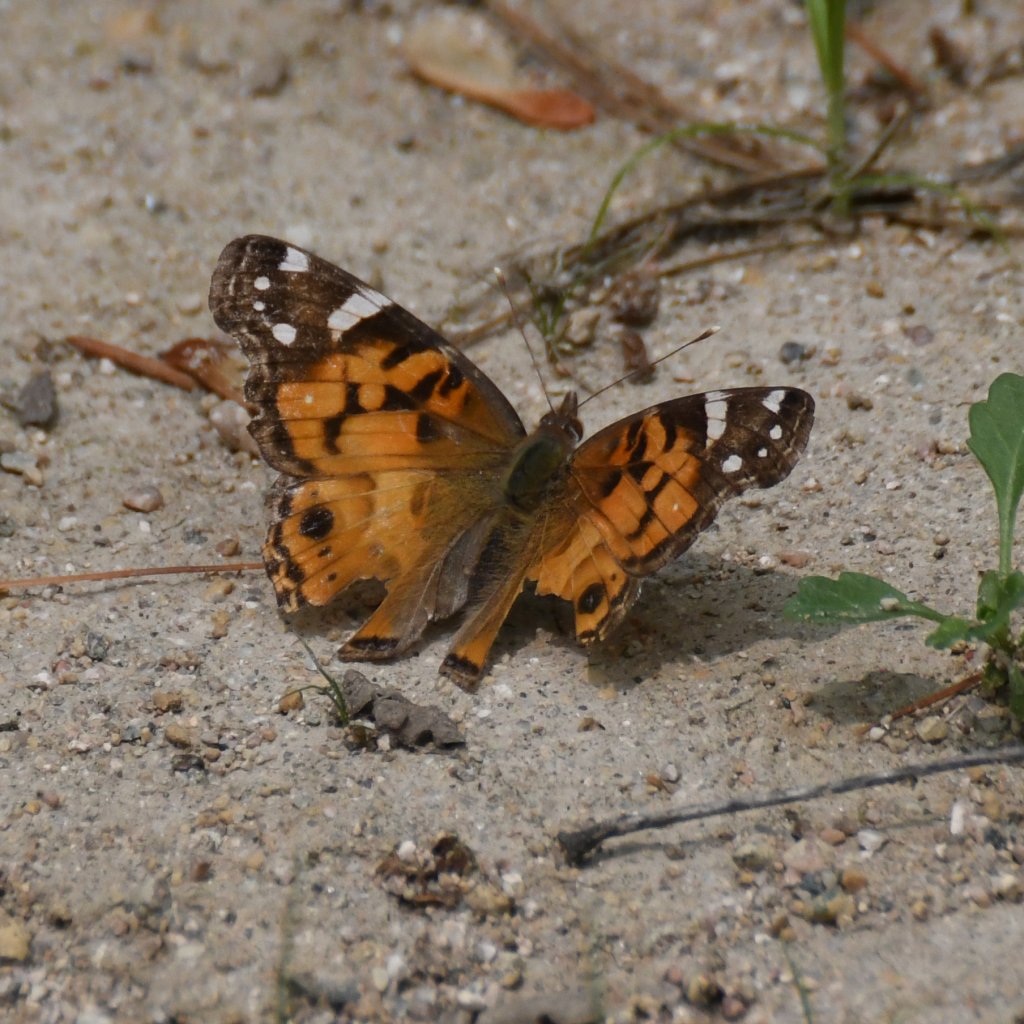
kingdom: Animalia
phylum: Arthropoda
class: Insecta
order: Lepidoptera
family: Nymphalidae
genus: Vanessa
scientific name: Vanessa virginiensis
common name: American Lady
